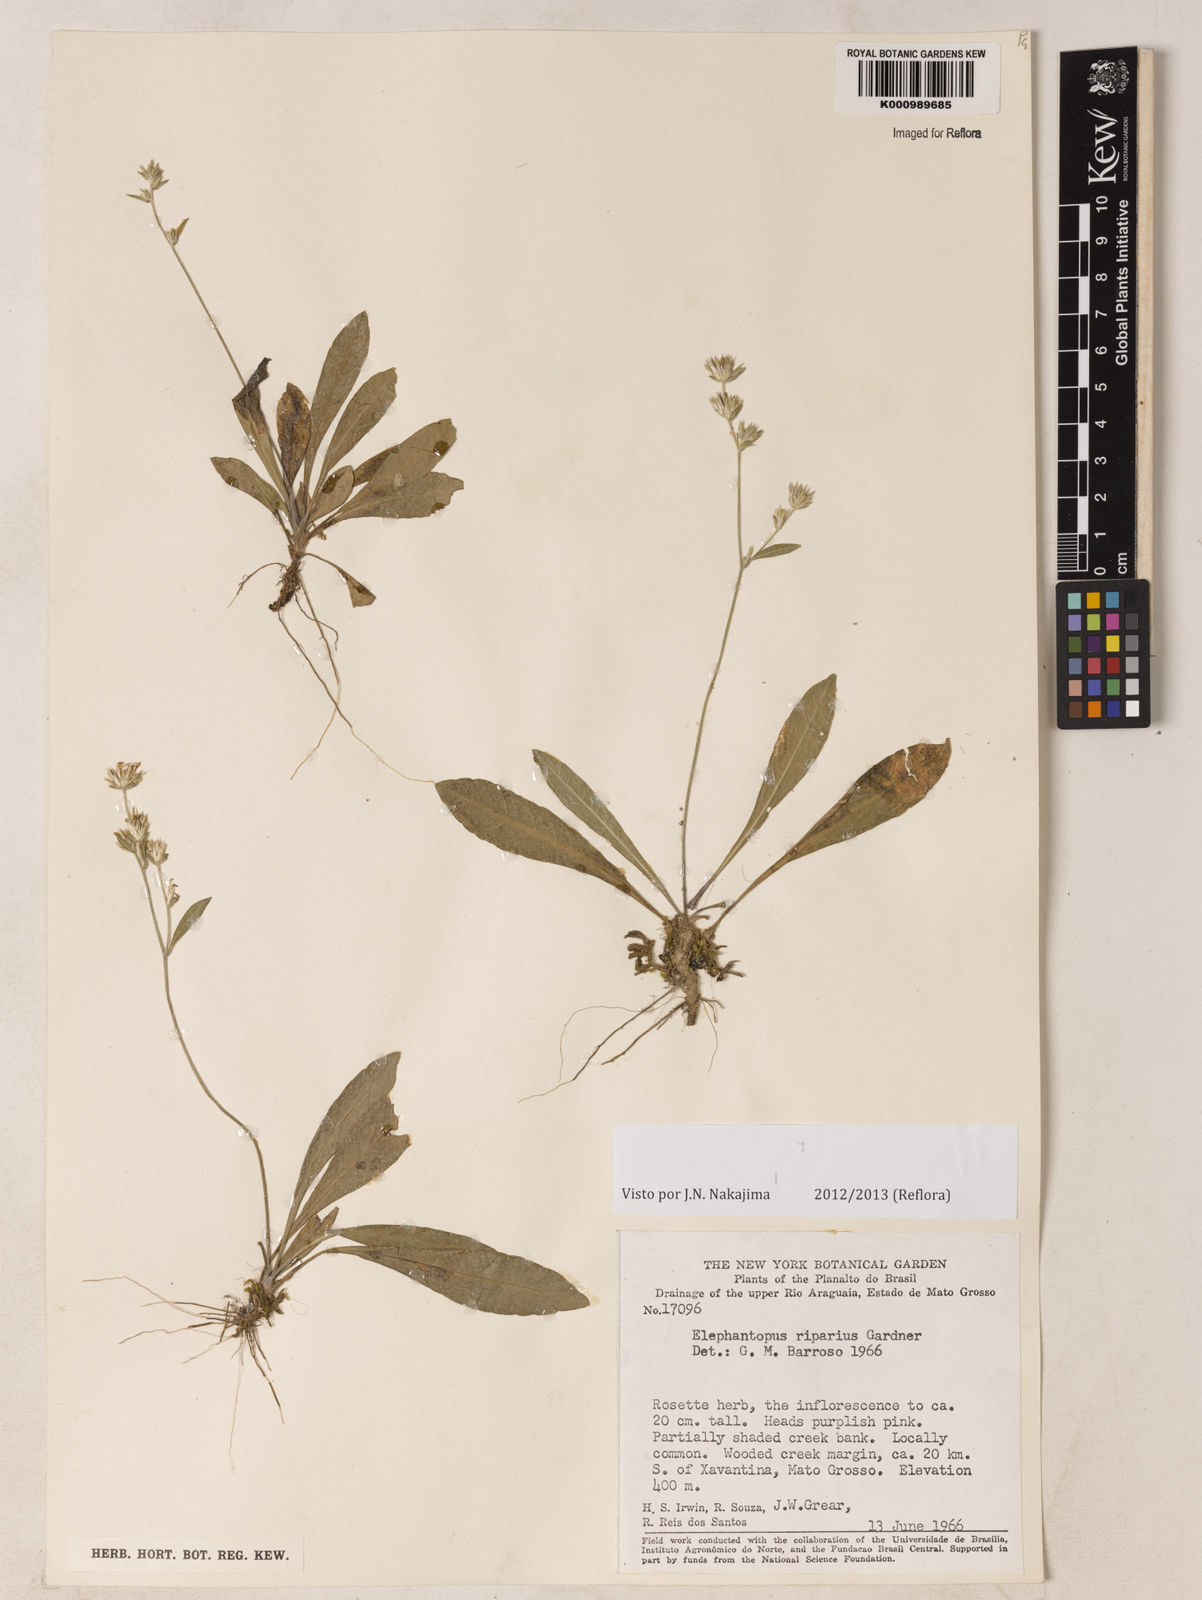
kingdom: Plantae
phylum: Tracheophyta
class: Magnoliopsida
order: Asterales
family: Asteraceae
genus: Elephantopus
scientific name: Elephantopus riparius
